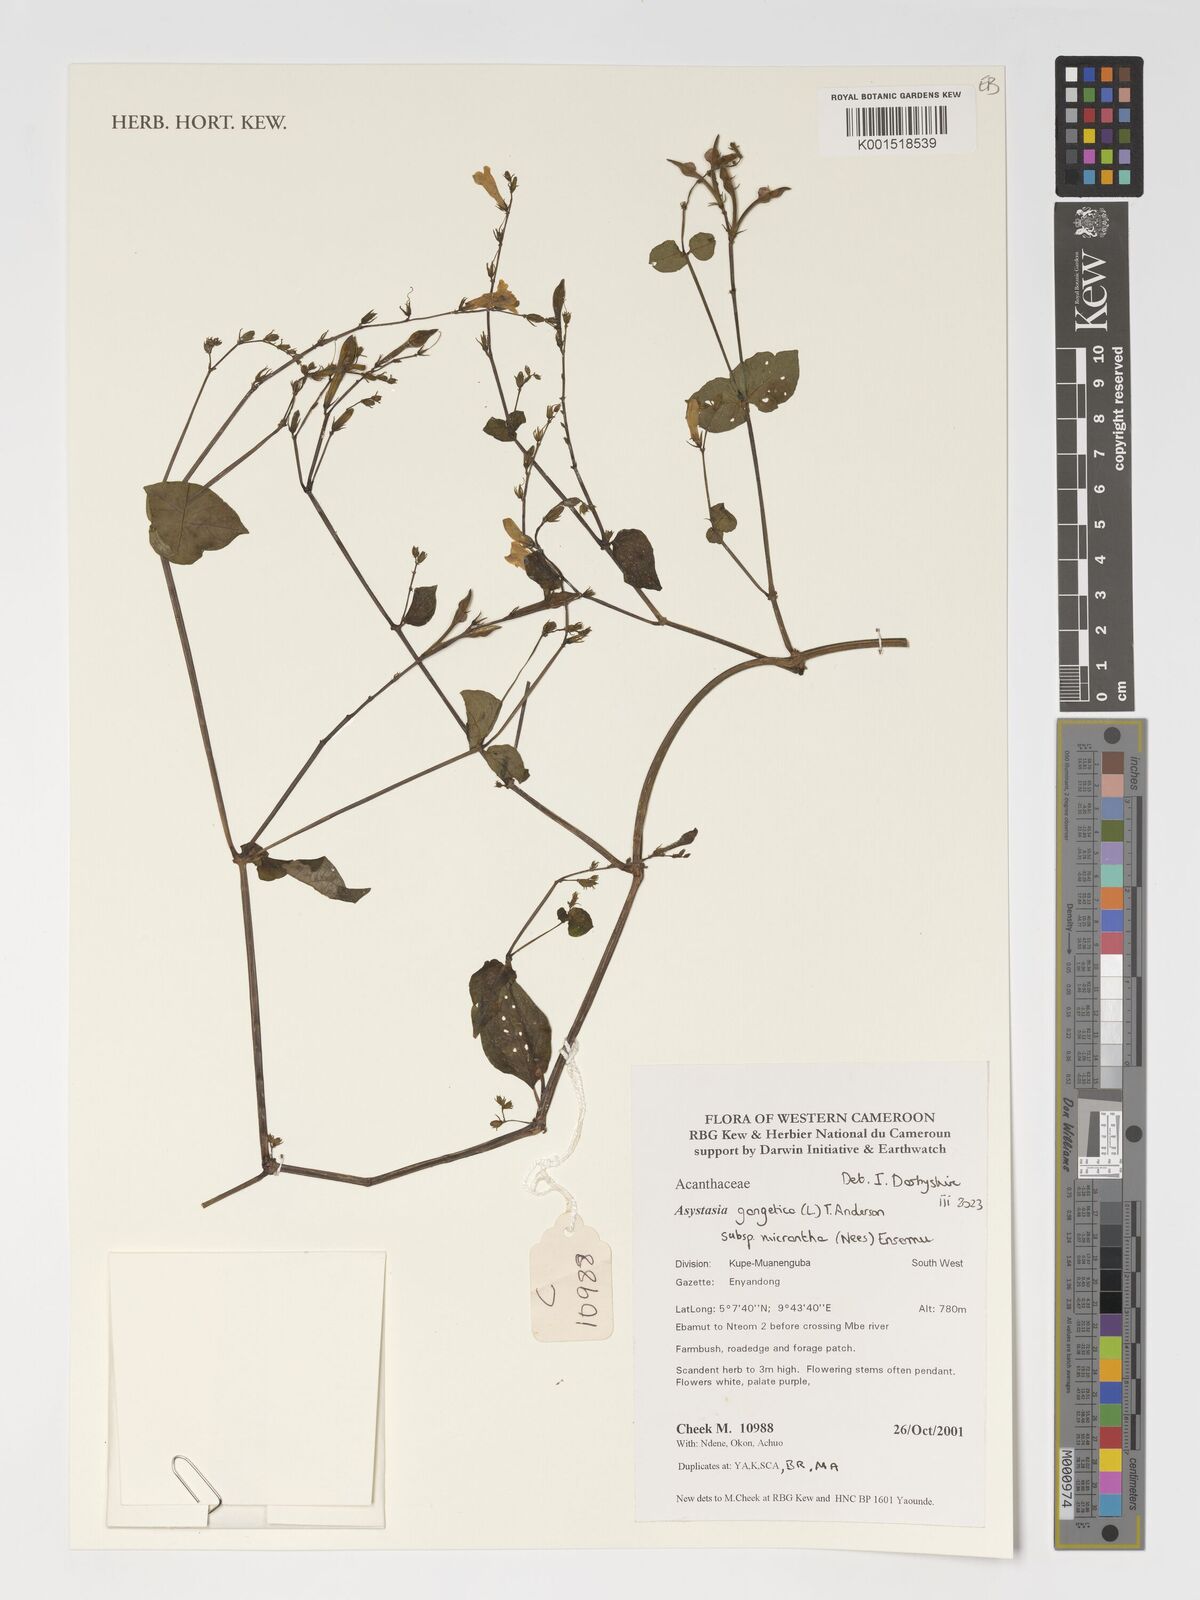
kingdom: Plantae
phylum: Tracheophyta
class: Magnoliopsida
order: Lamiales
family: Acanthaceae
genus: Asystasia
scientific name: Asystasia intrusa
